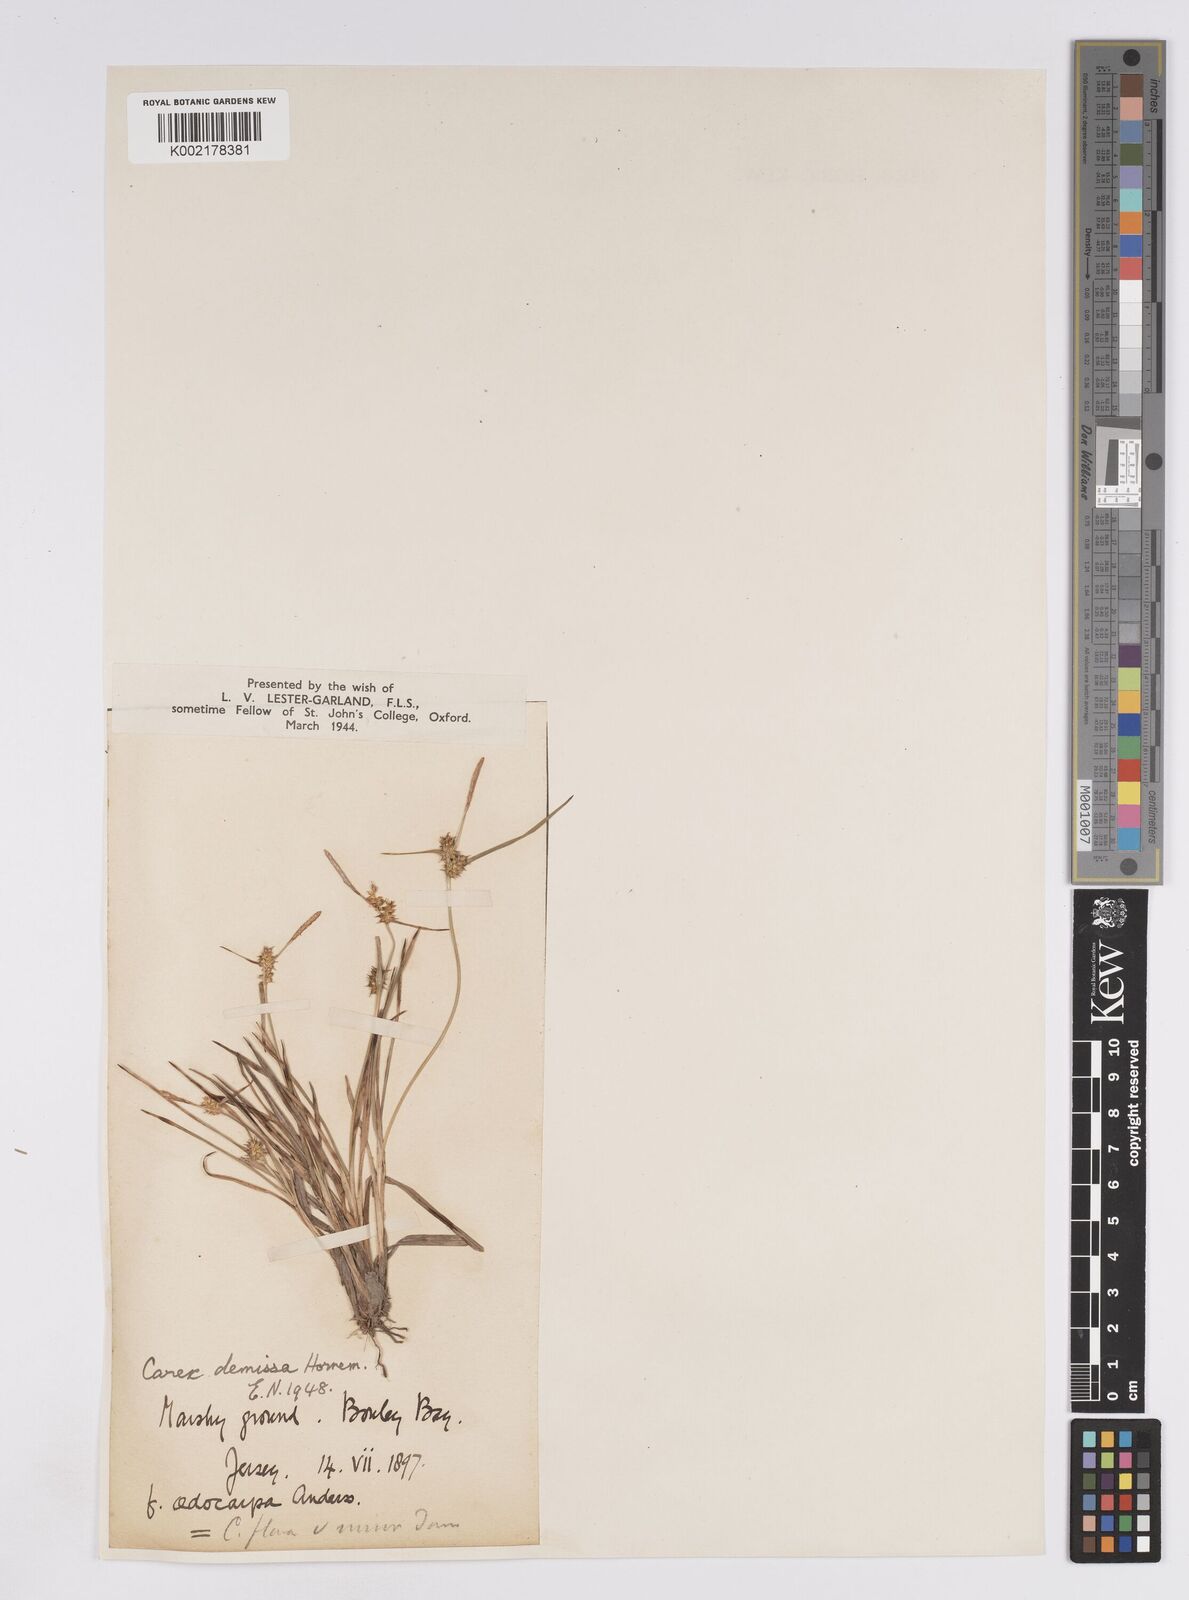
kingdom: Plantae
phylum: Tracheophyta
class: Liliopsida
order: Poales
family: Cyperaceae
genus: Carex
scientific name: Carex demissa
